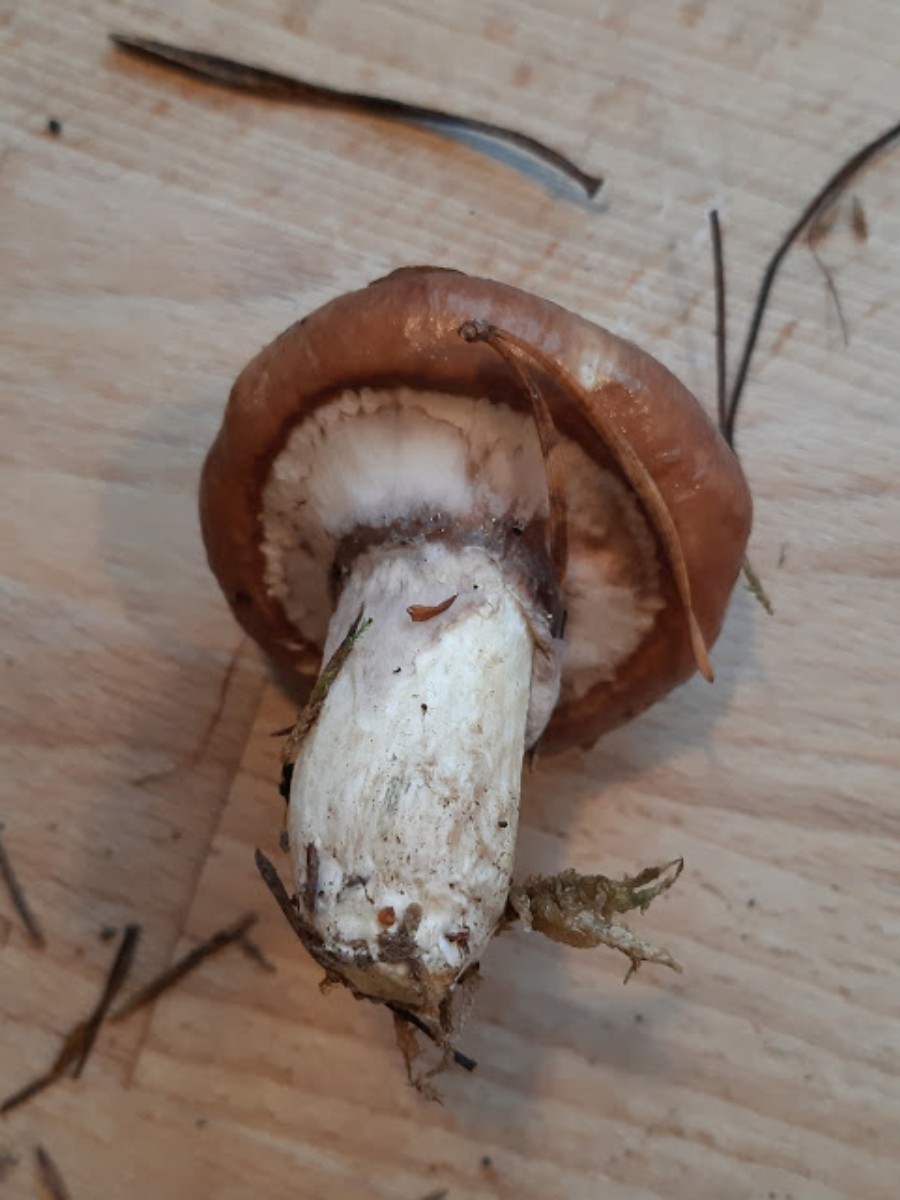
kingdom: Fungi
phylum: Basidiomycota
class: Agaricomycetes
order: Boletales
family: Suillaceae
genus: Suillus
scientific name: Suillus luteus
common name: brungul slimrørhat
